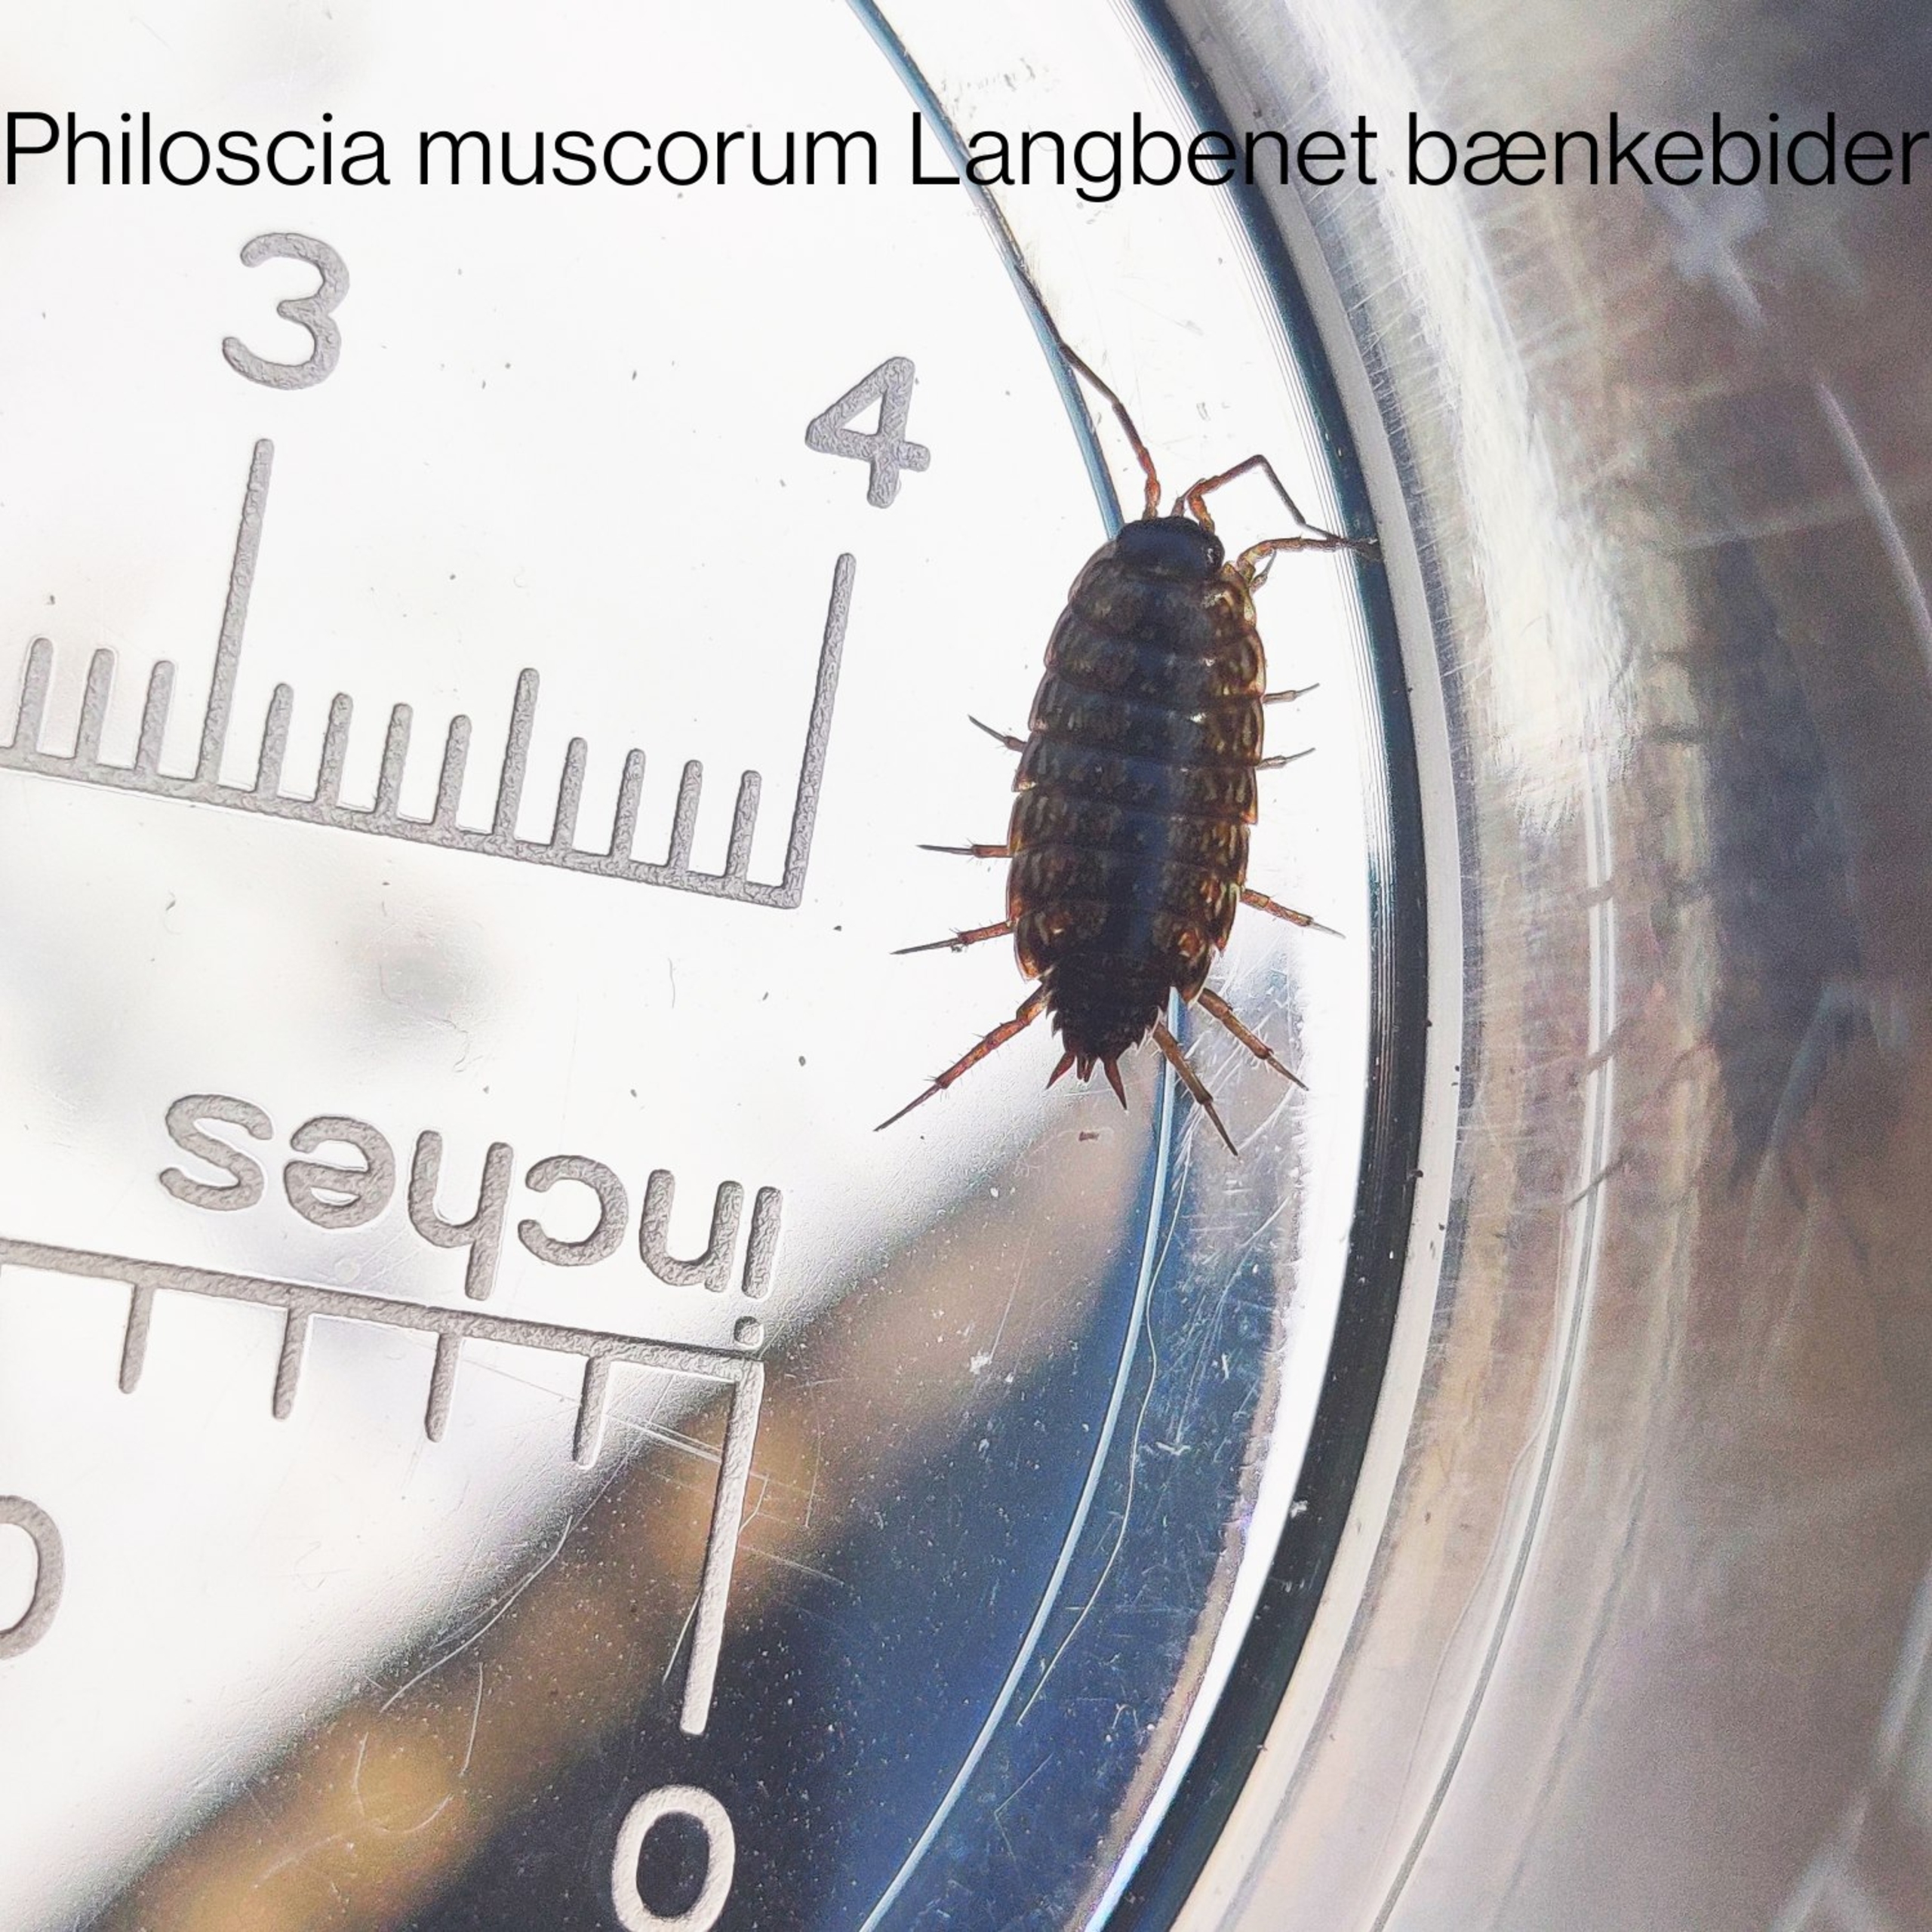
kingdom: Animalia
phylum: Arthropoda
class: Malacostraca
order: Isopoda
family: Philosciidae
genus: Philoscia
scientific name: Philoscia muscorum
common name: Langbenet bænkebider
